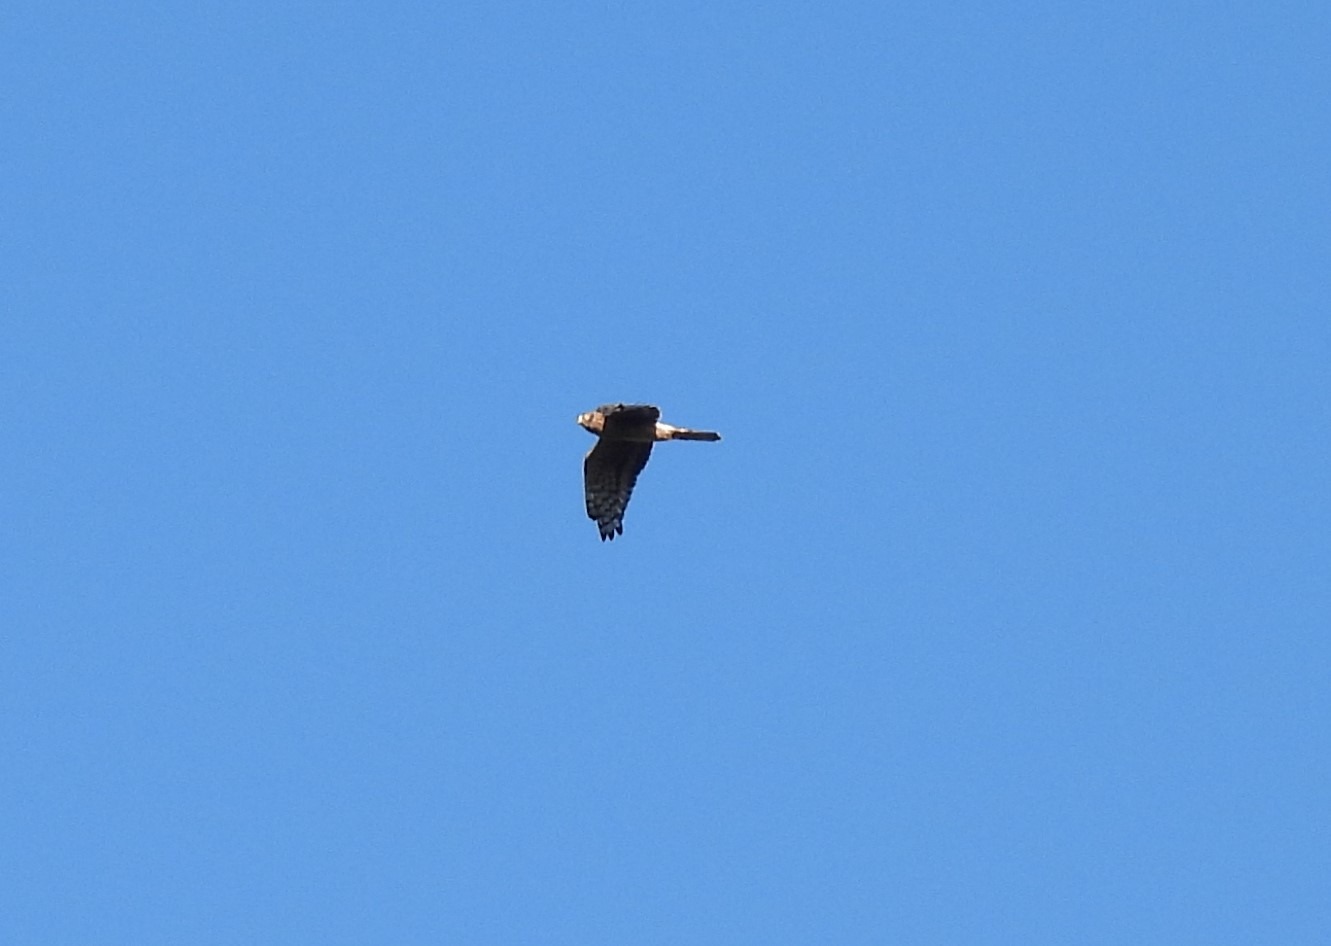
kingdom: Animalia
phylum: Chordata
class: Aves
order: Accipitriformes
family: Accipitridae
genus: Circus
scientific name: Circus cyaneus
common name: Blå kærhøg
